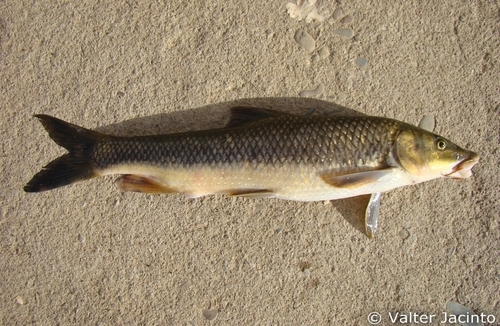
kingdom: Animalia
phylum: Chordata
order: Cypriniformes
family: Cyprinidae
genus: Luciobarbus
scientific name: Luciobarbus sclateri
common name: Andalusian barbel
